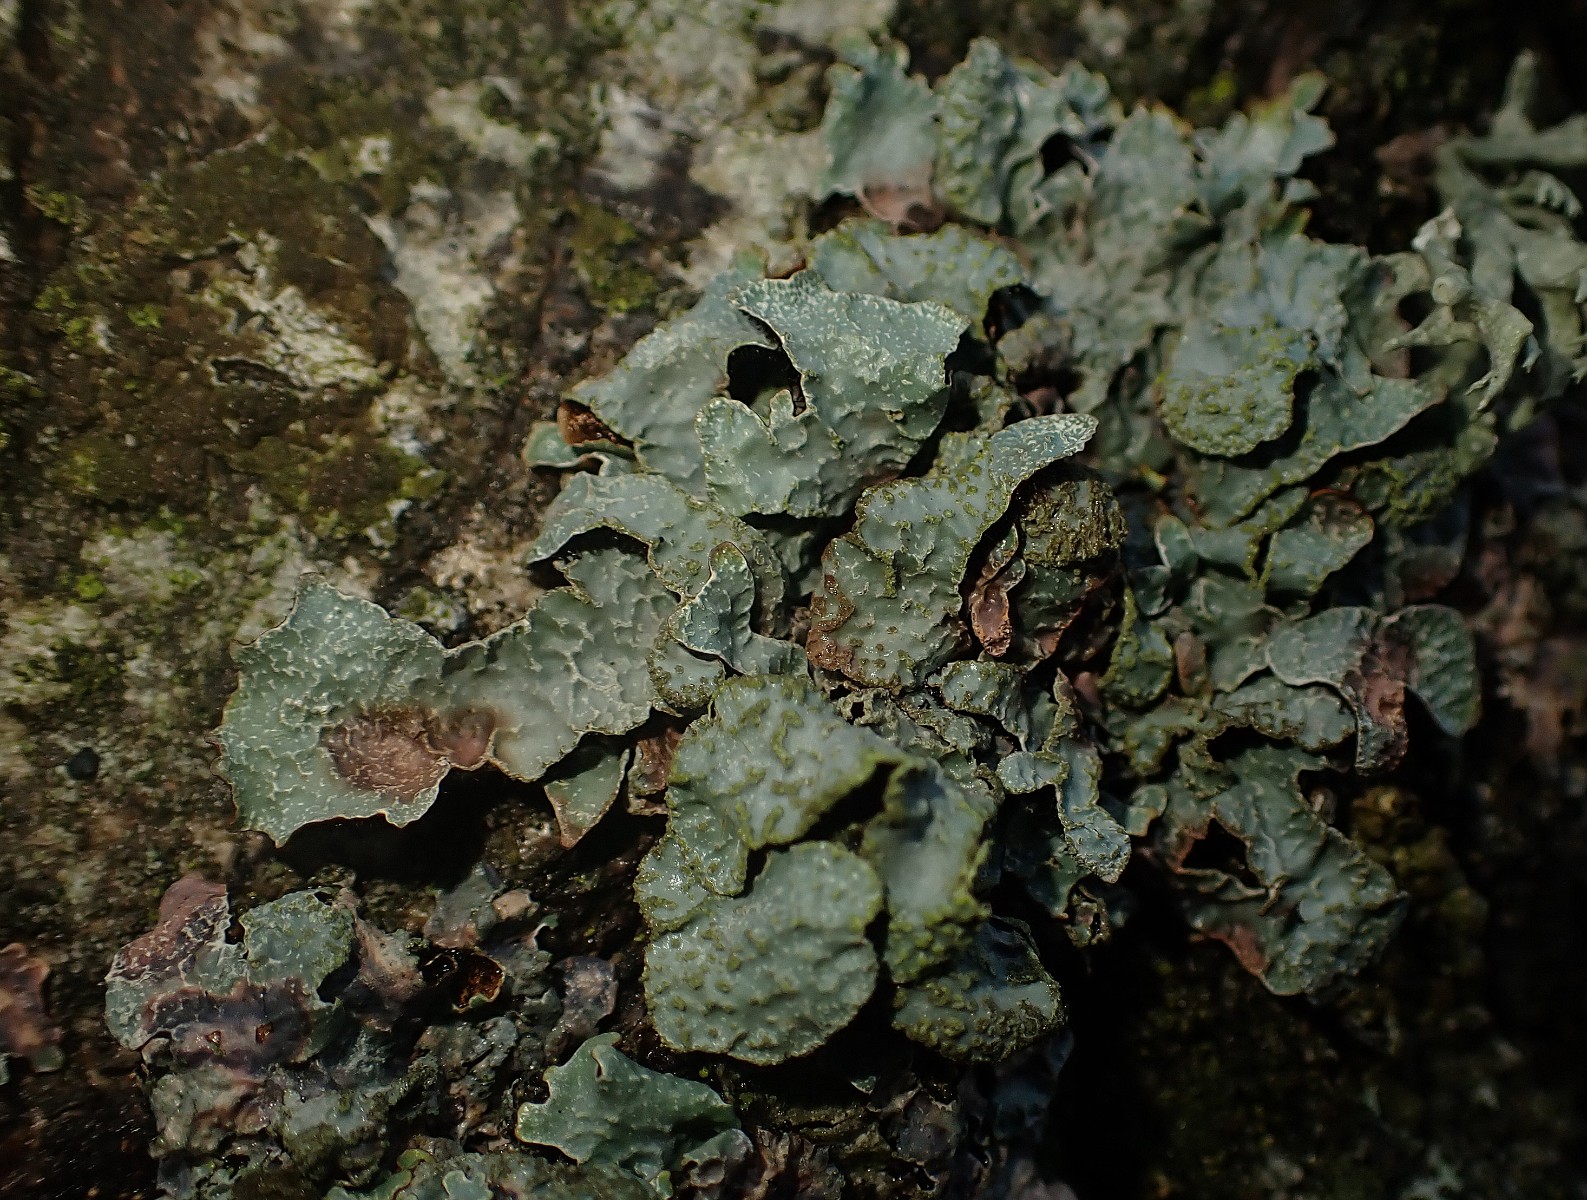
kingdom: Fungi
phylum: Ascomycota
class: Lecanoromycetes
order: Lecanorales
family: Parmeliaceae
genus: Parmelia
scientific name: Parmelia sulcata
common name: rynket skållav
